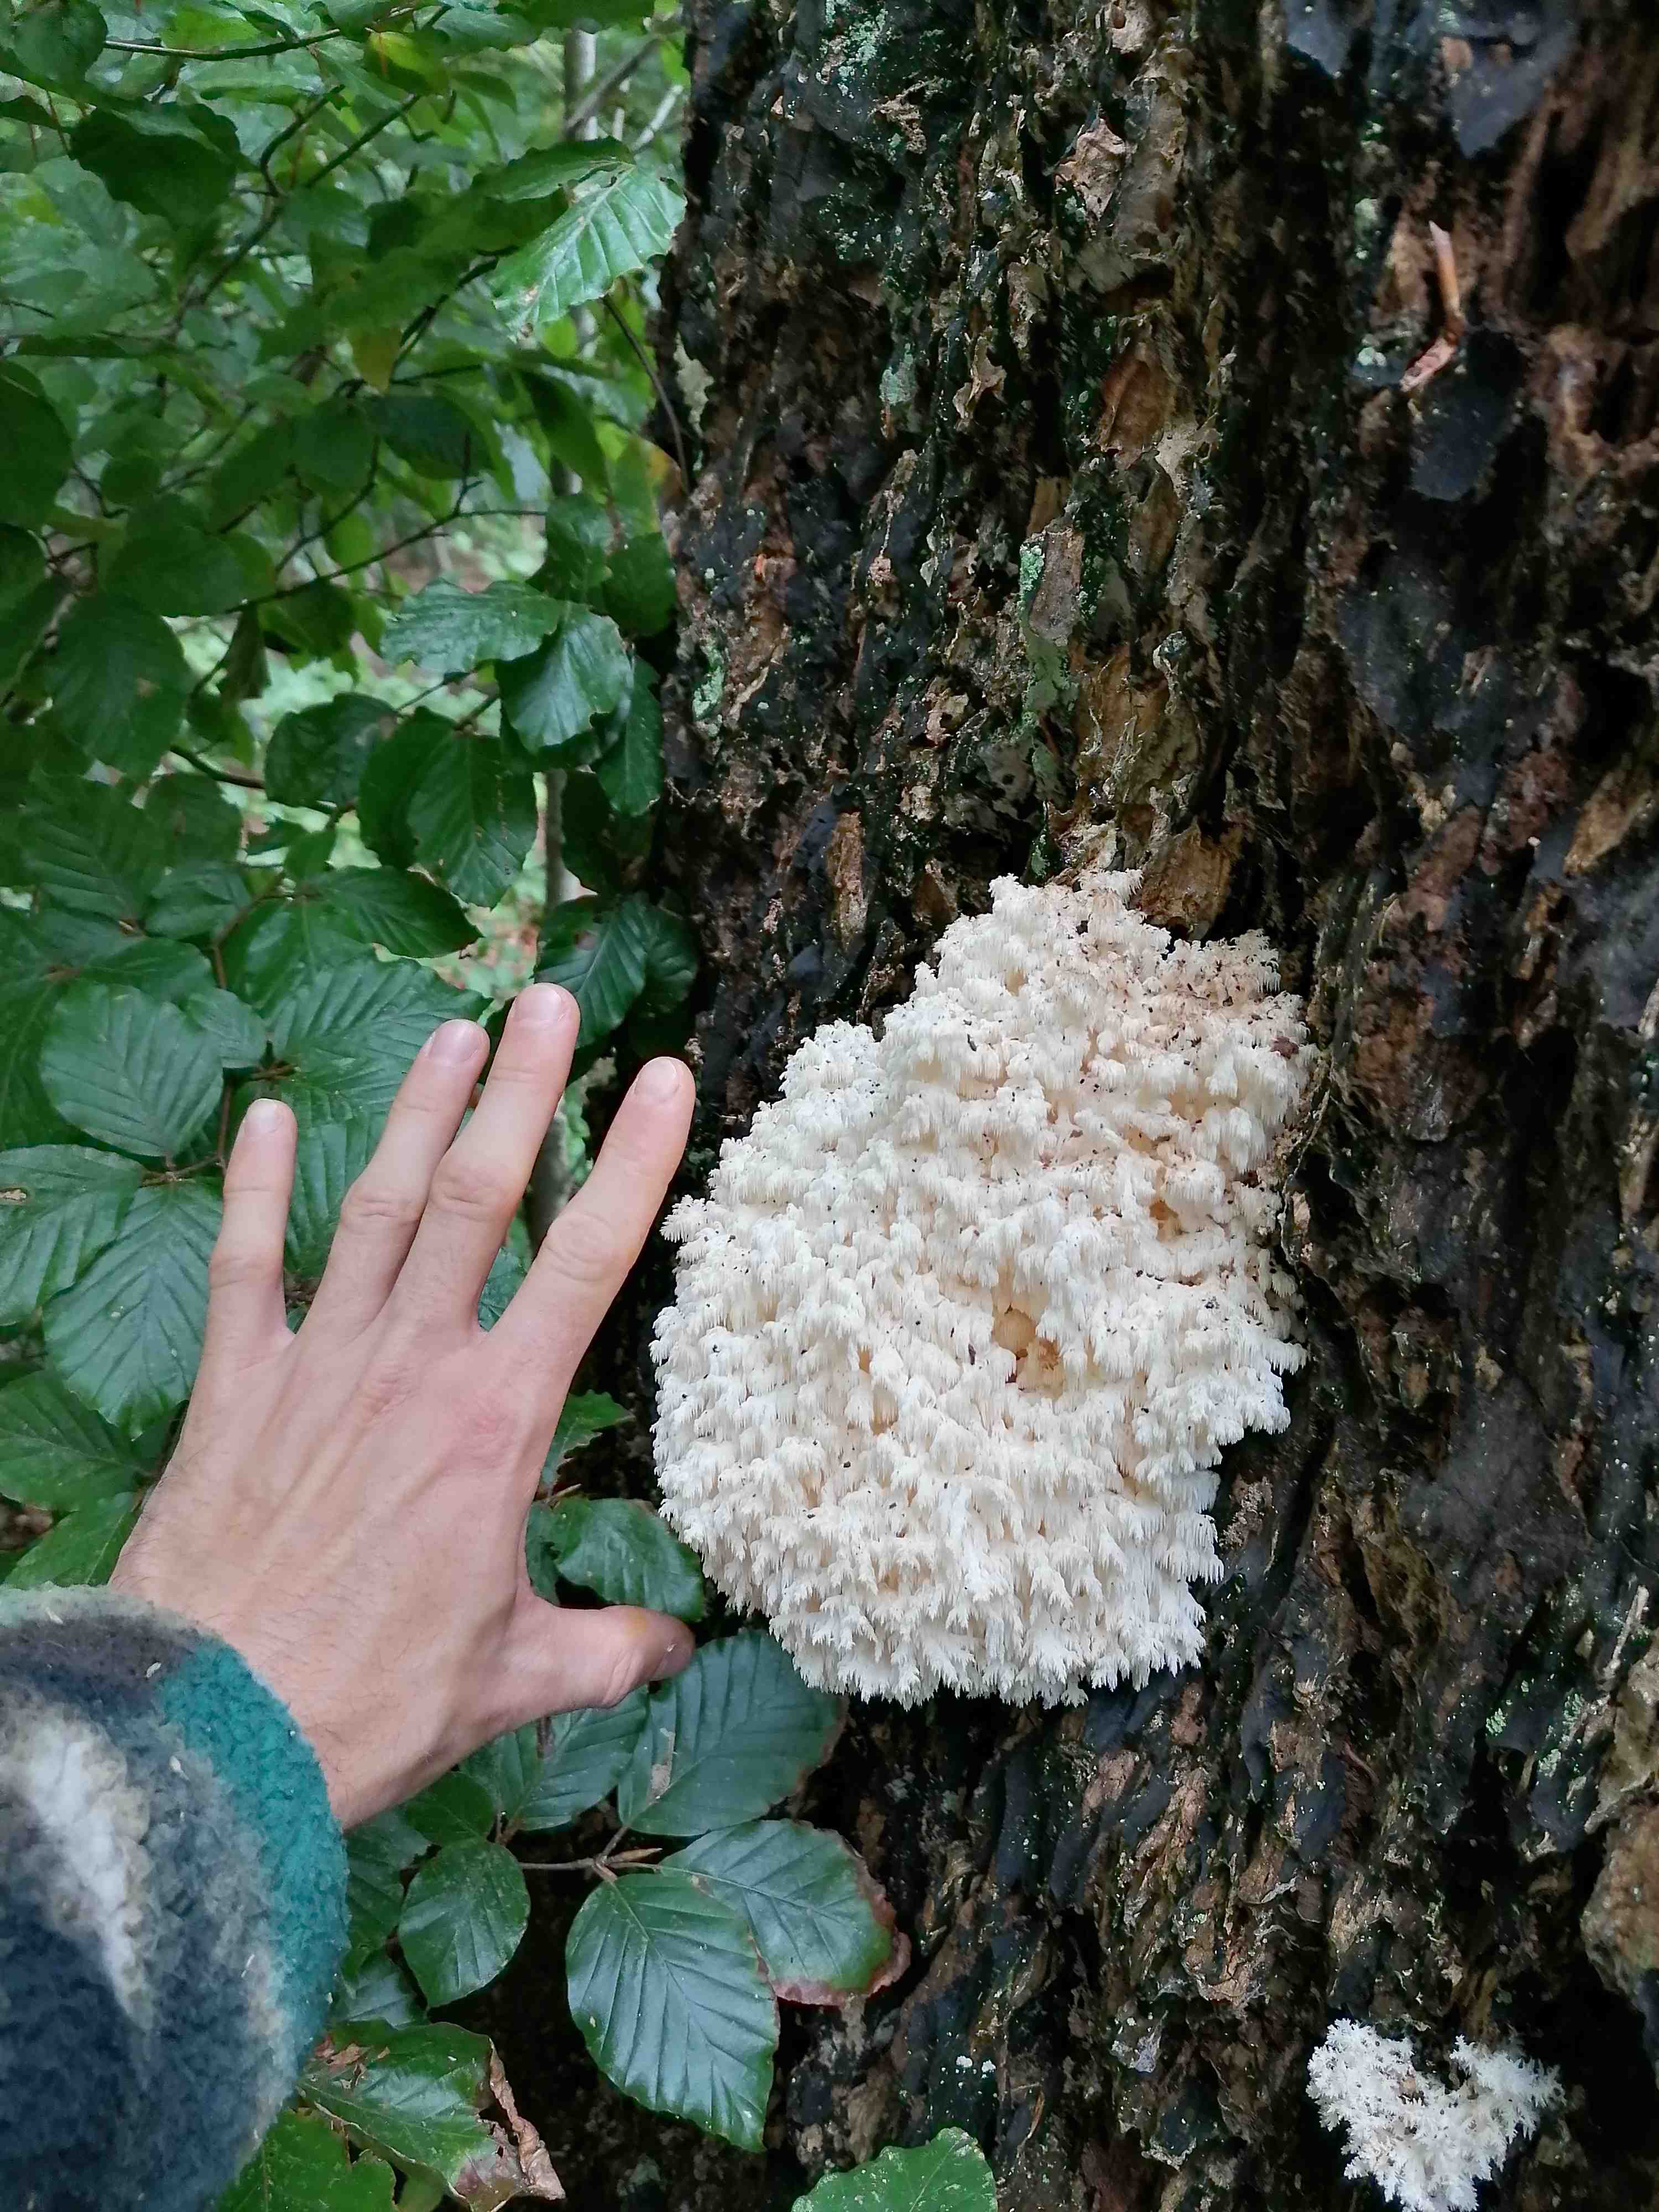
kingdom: Fungi
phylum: Basidiomycota
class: Agaricomycetes
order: Russulales
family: Hericiaceae
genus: Hericium
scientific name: Hericium coralloides
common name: koralpigsvamp
